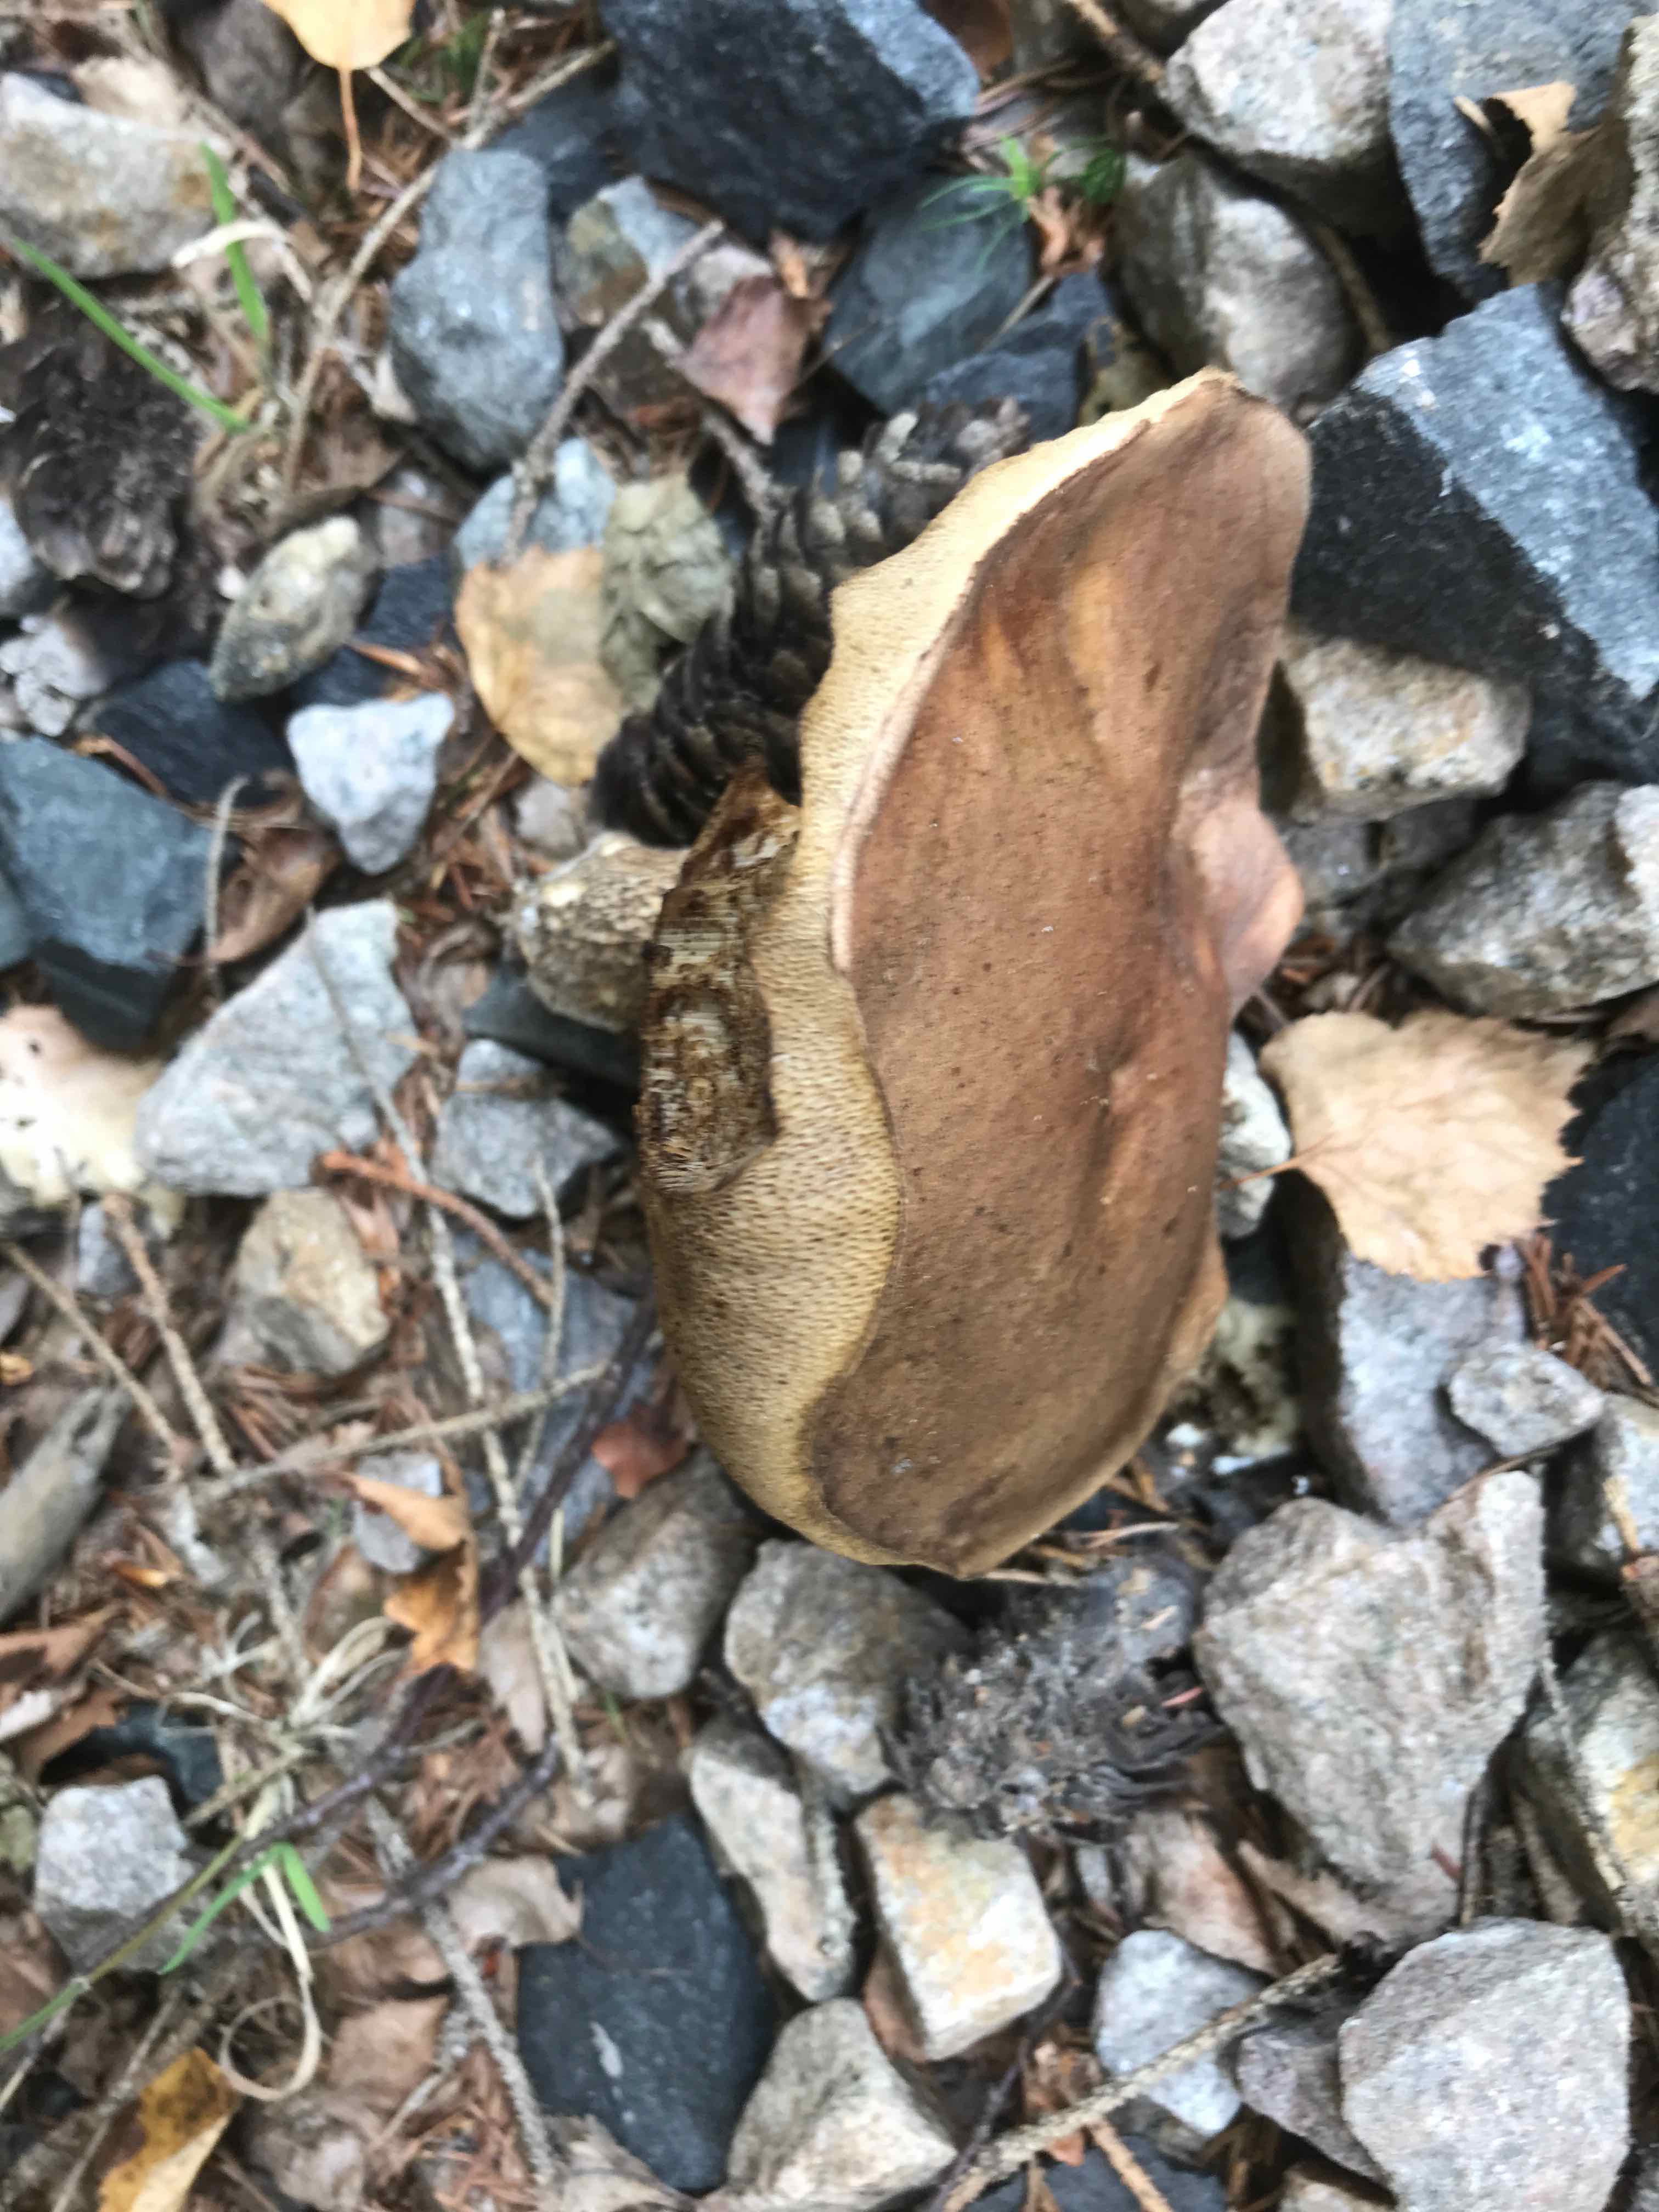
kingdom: Fungi
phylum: Basidiomycota
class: Agaricomycetes
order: Boletales
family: Boletaceae
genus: Leccinum
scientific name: Leccinum scabrum
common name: brun skælrørhat
